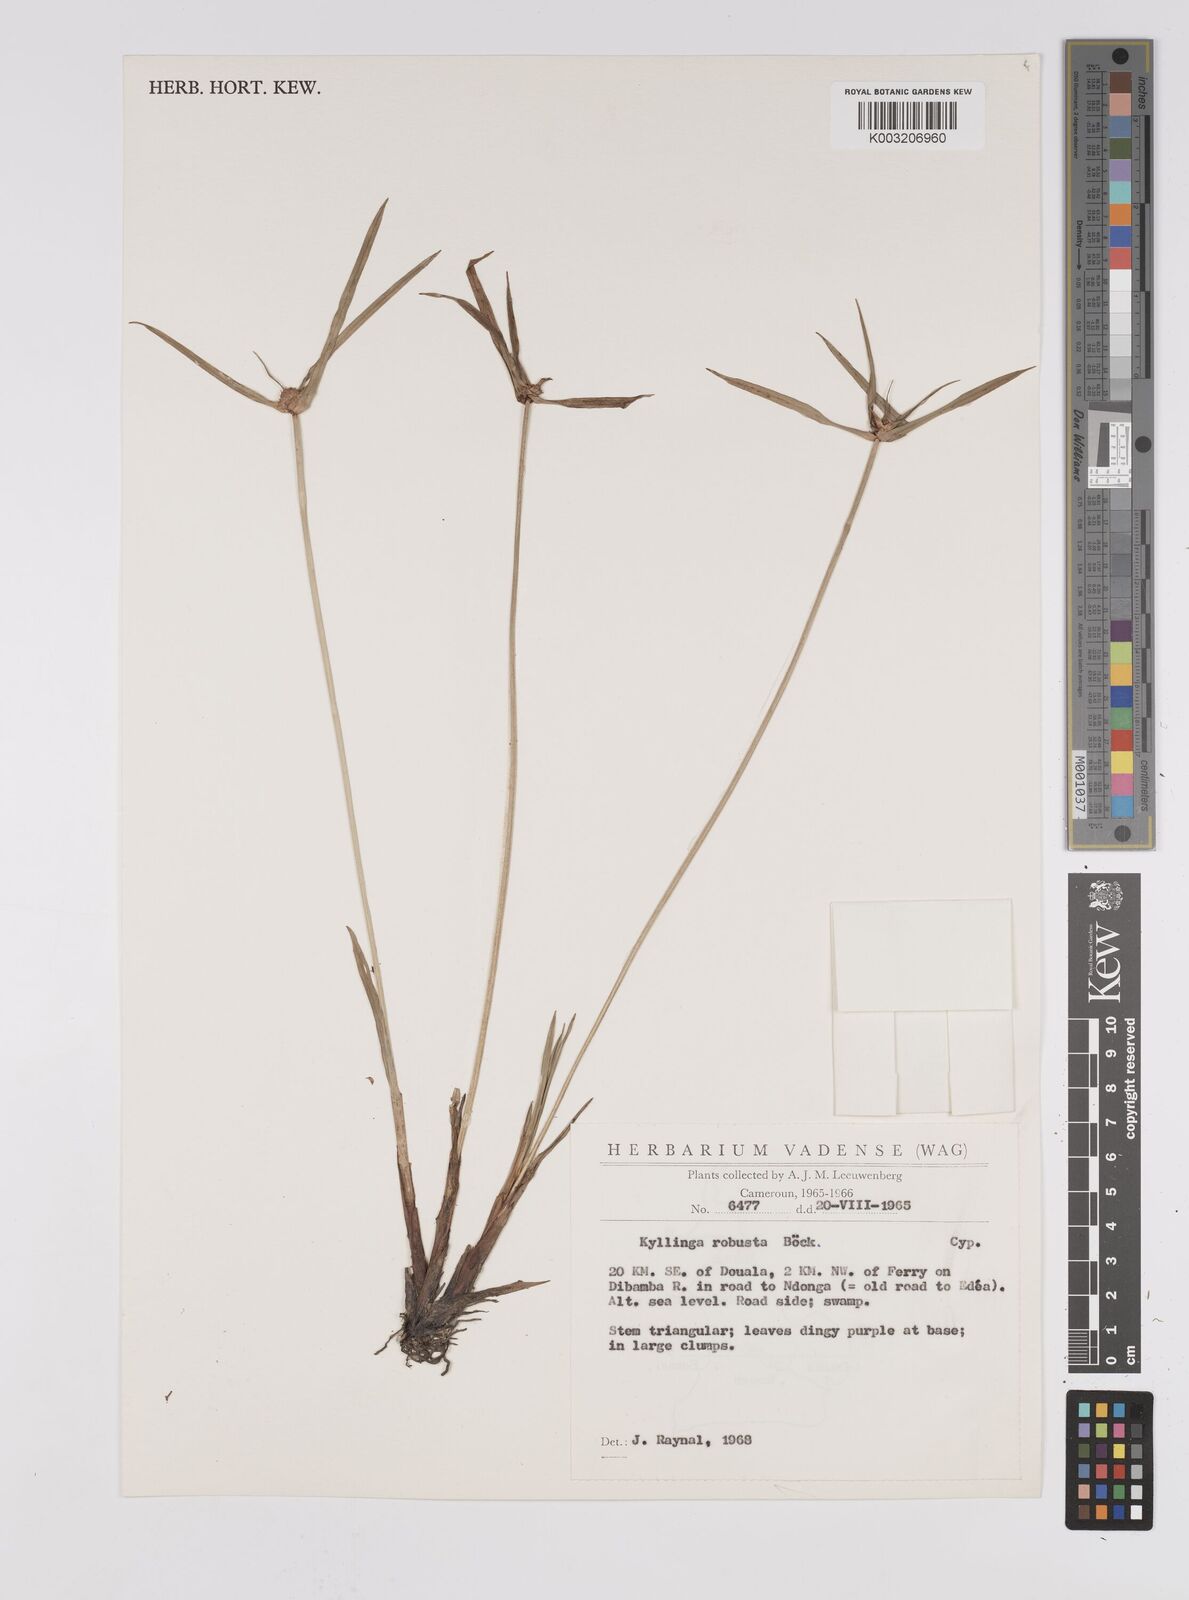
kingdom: Plantae
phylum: Tracheophyta
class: Liliopsida
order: Poales
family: Cyperaceae
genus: Cyperus
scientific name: Cyperus
